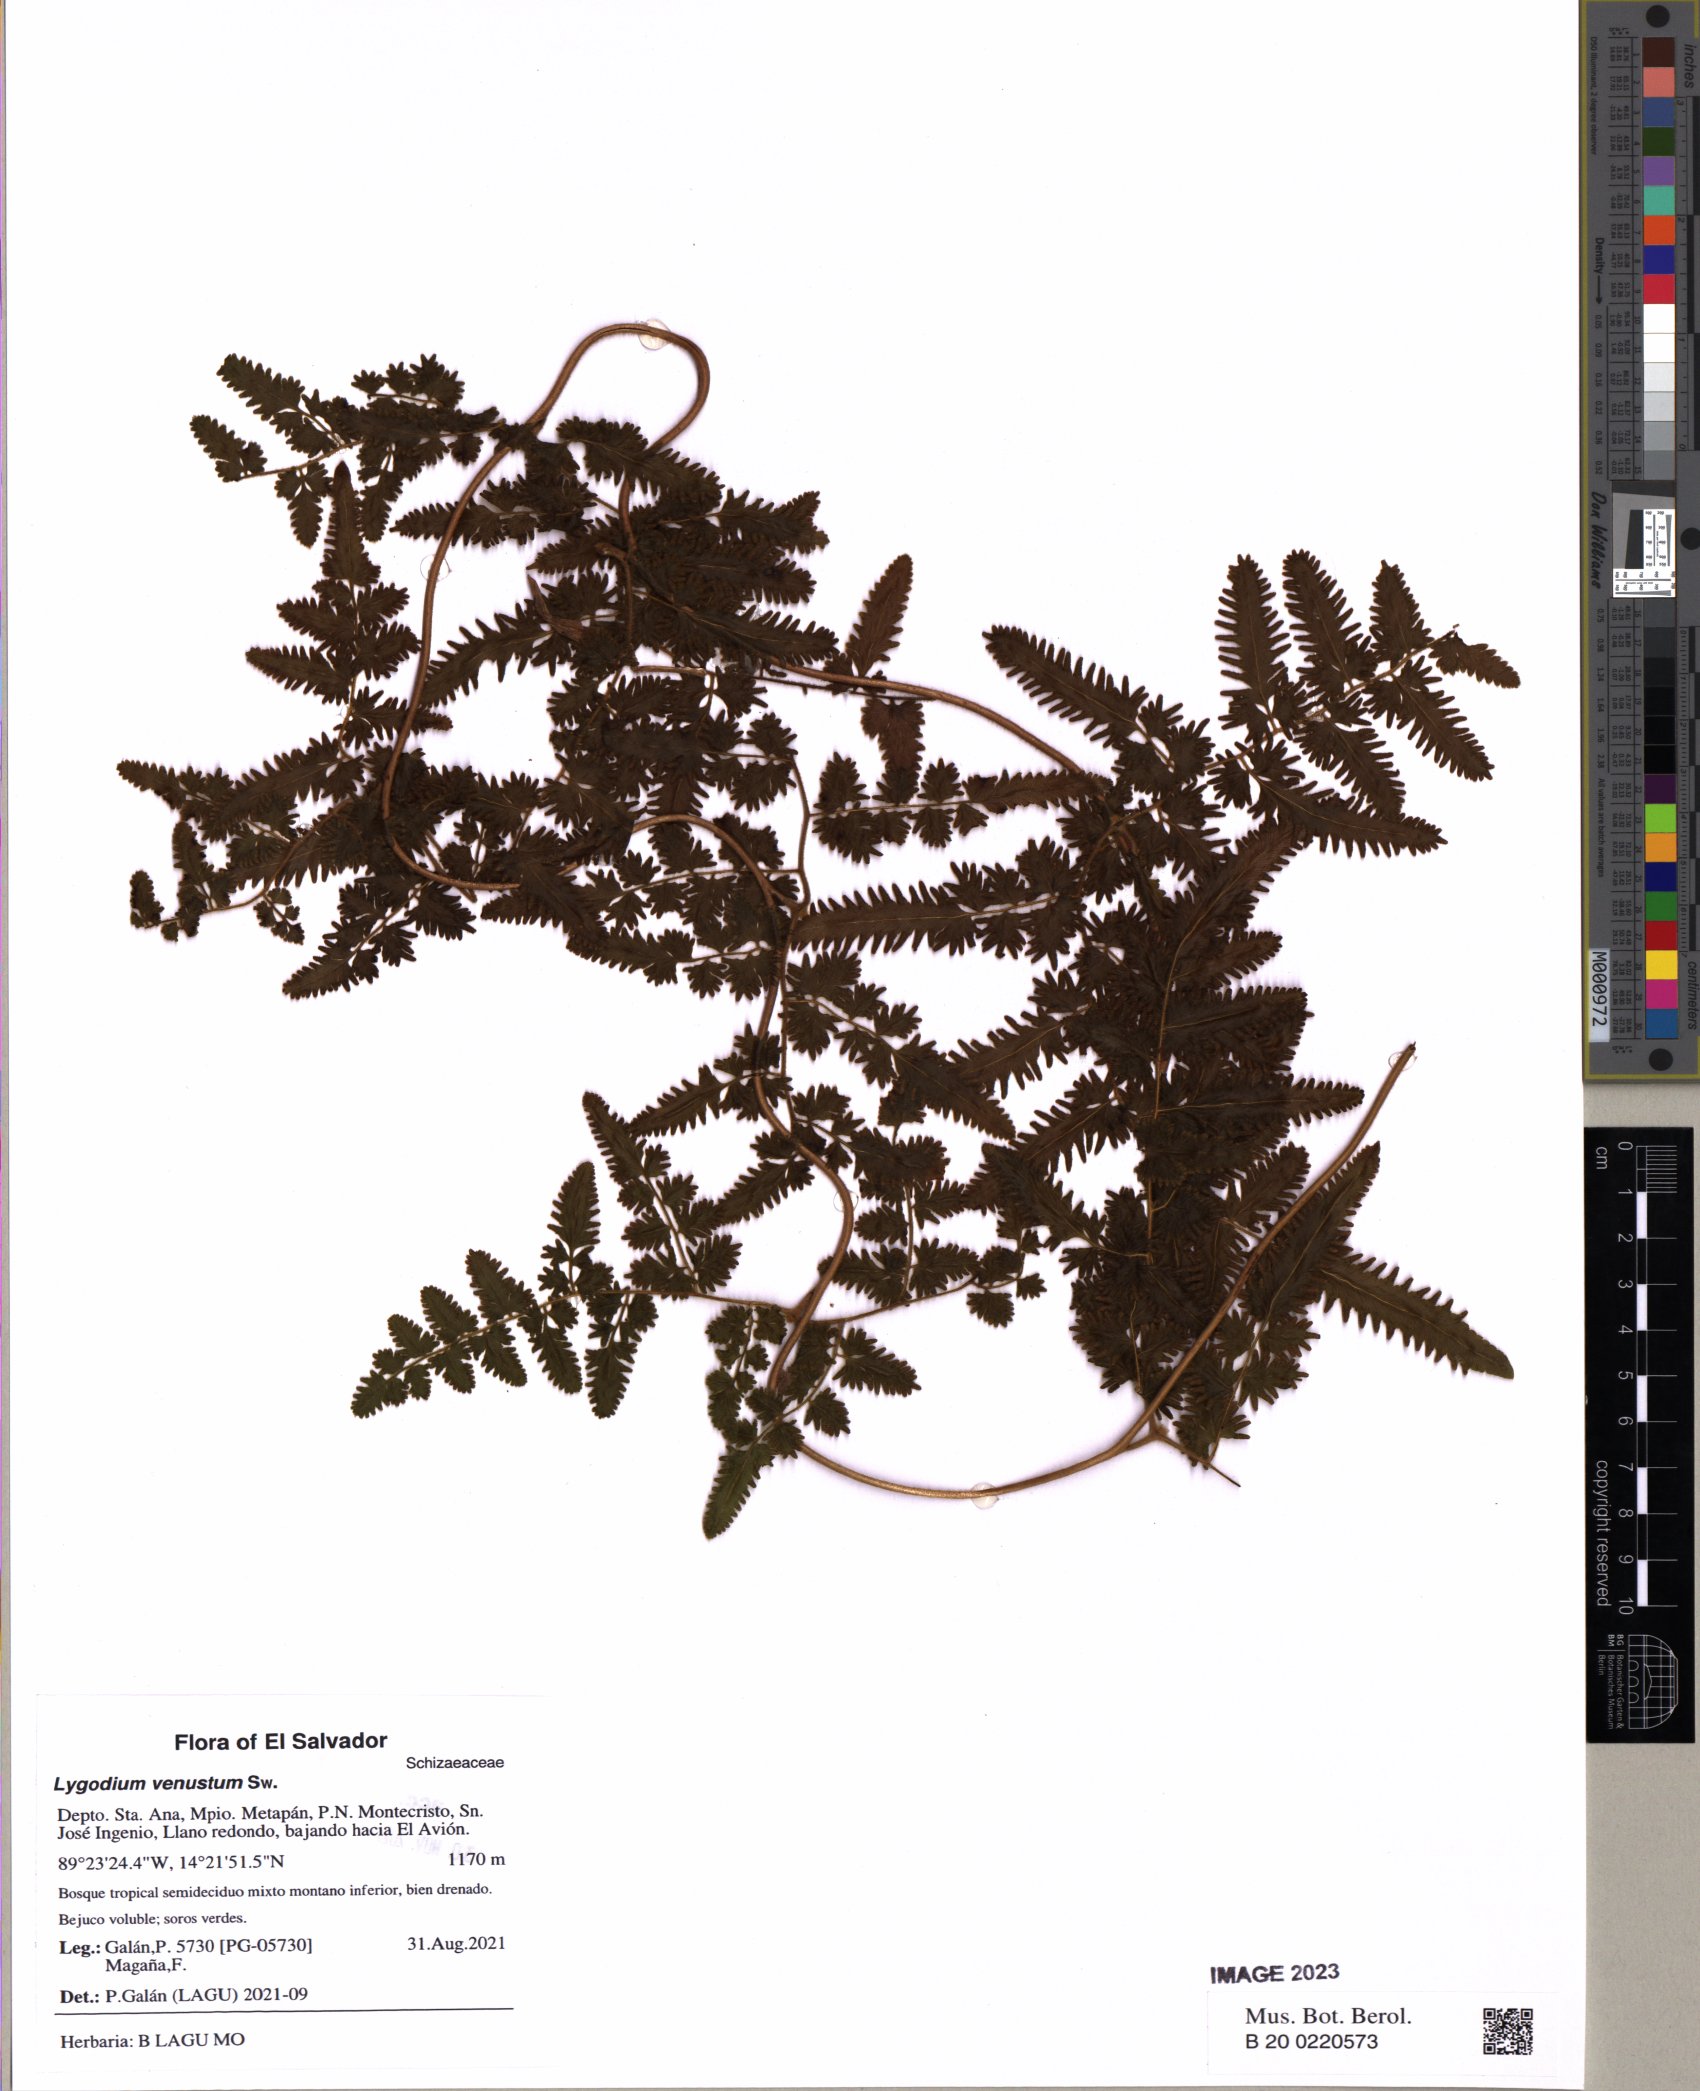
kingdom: Plantae
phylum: Tracheophyta
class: Polypodiopsida
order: Schizaeales
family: Lygodiaceae
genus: Lygodium
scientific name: Lygodium venustum
